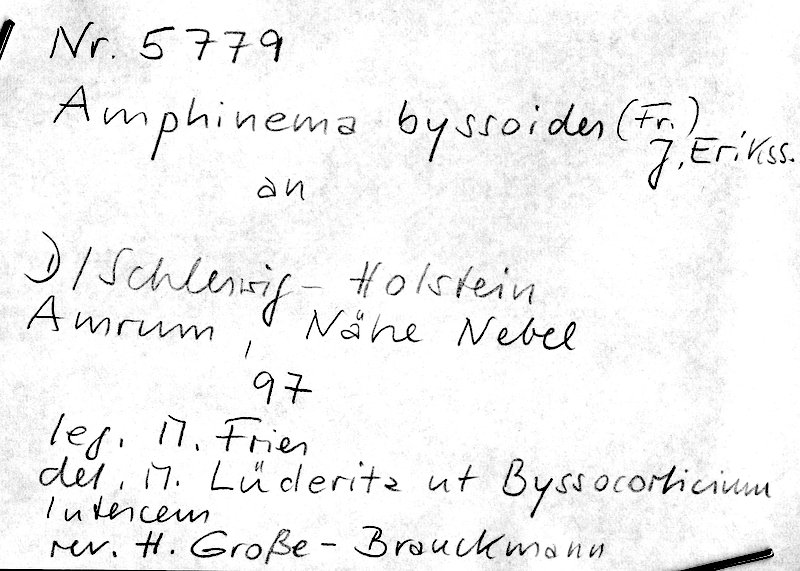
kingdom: Fungi
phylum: Basidiomycota
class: Agaricomycetes
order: Atheliales
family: Atheliaceae
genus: Amphinema
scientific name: Amphinema byssoides
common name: Cratered duster
